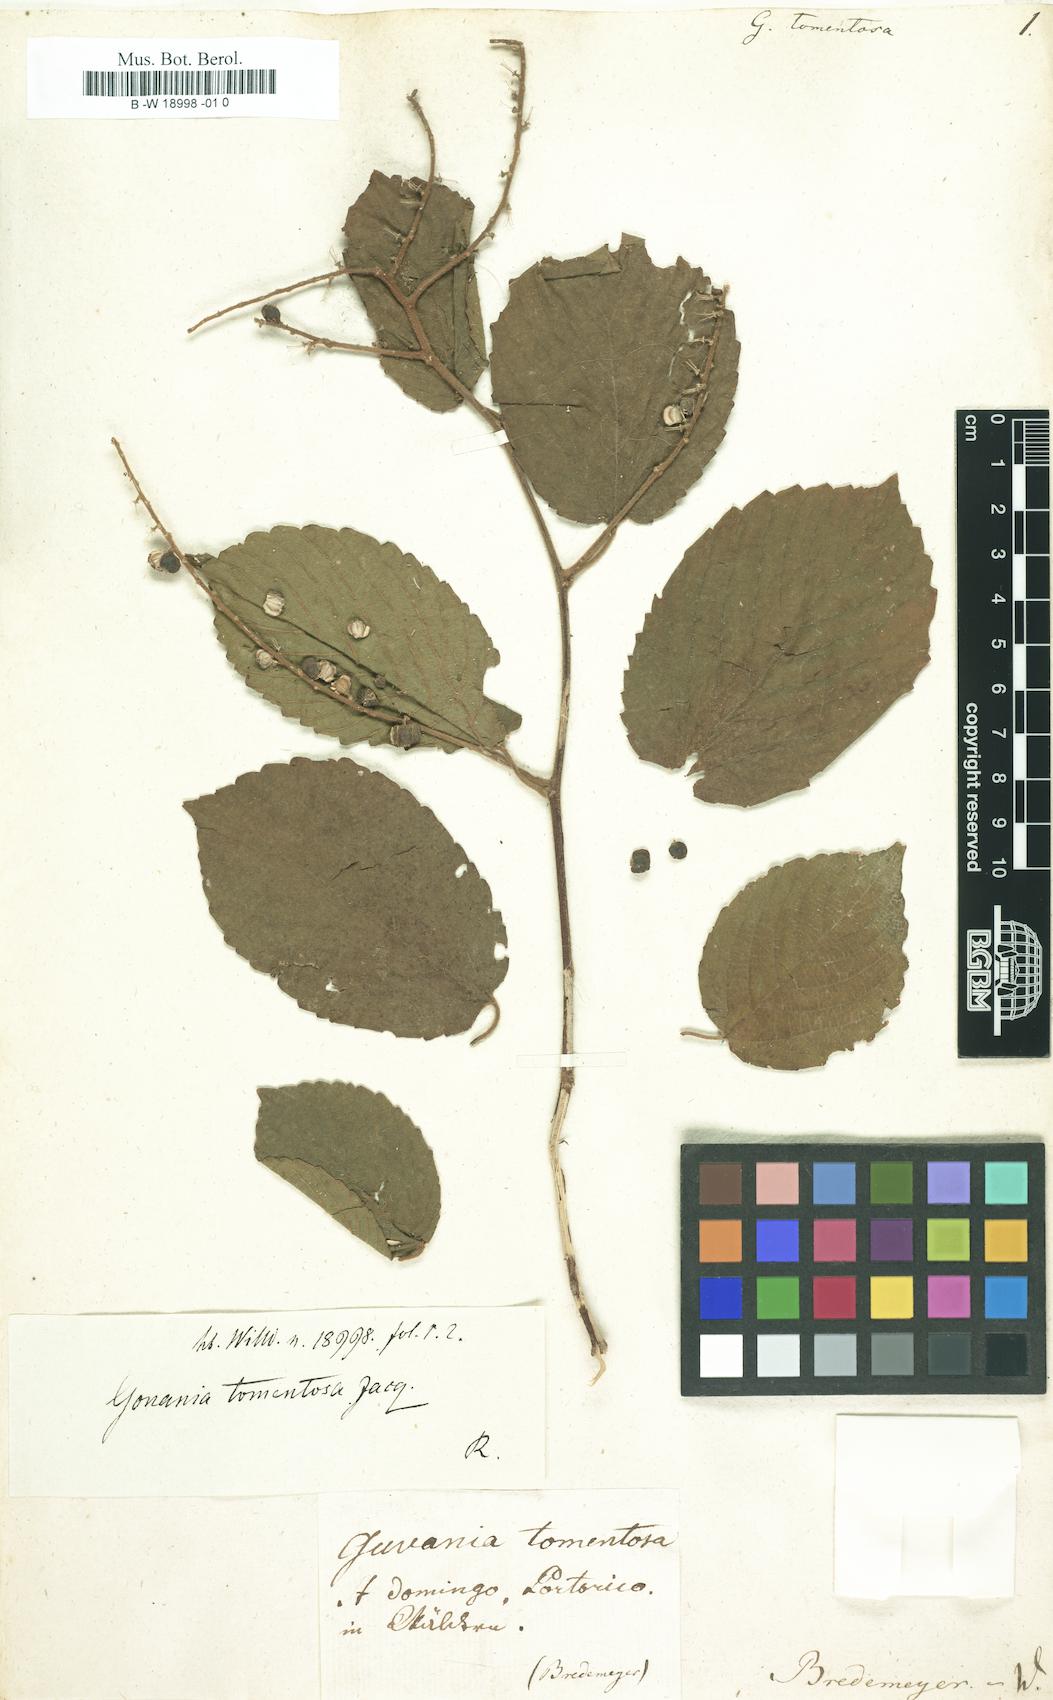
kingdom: Plantae
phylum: Tracheophyta
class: Magnoliopsida
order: Rosales
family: Rhamnaceae
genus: Gouania
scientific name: Gouania polygama
